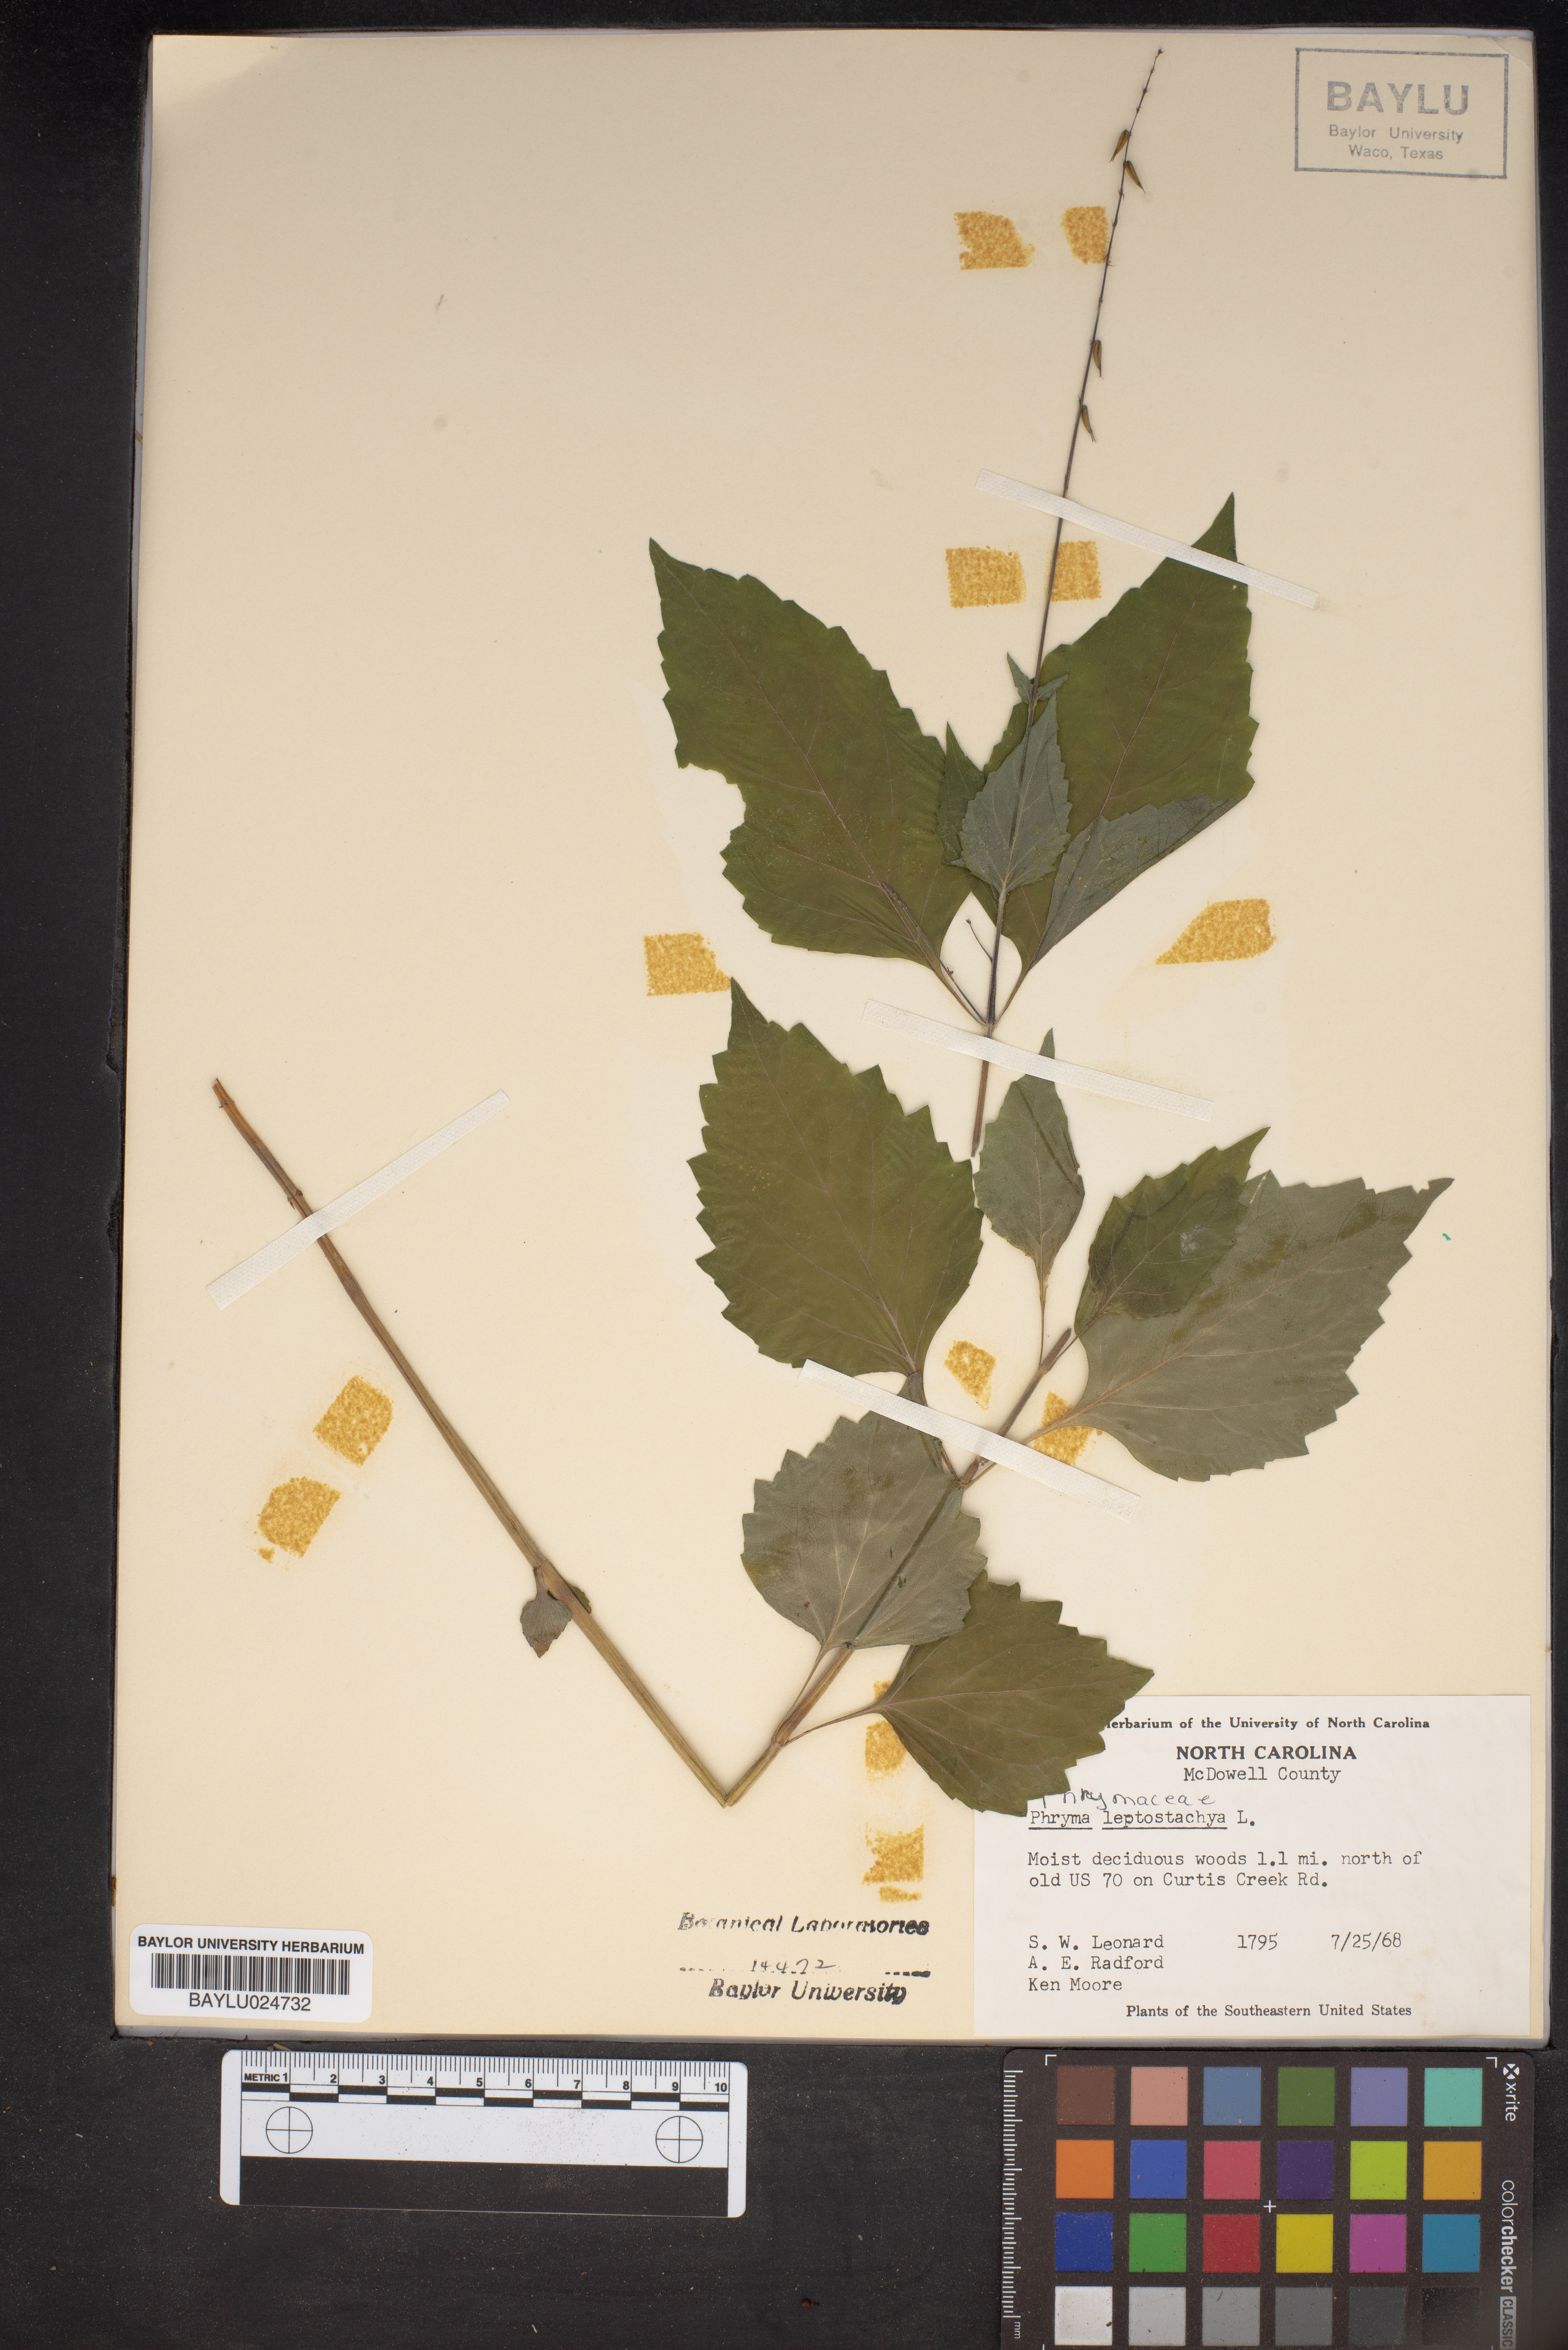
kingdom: Plantae
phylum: Tracheophyta
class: Magnoliopsida
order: Lamiales
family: Phrymaceae
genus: Phryma
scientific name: Phryma leptostachya
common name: American lopseed
